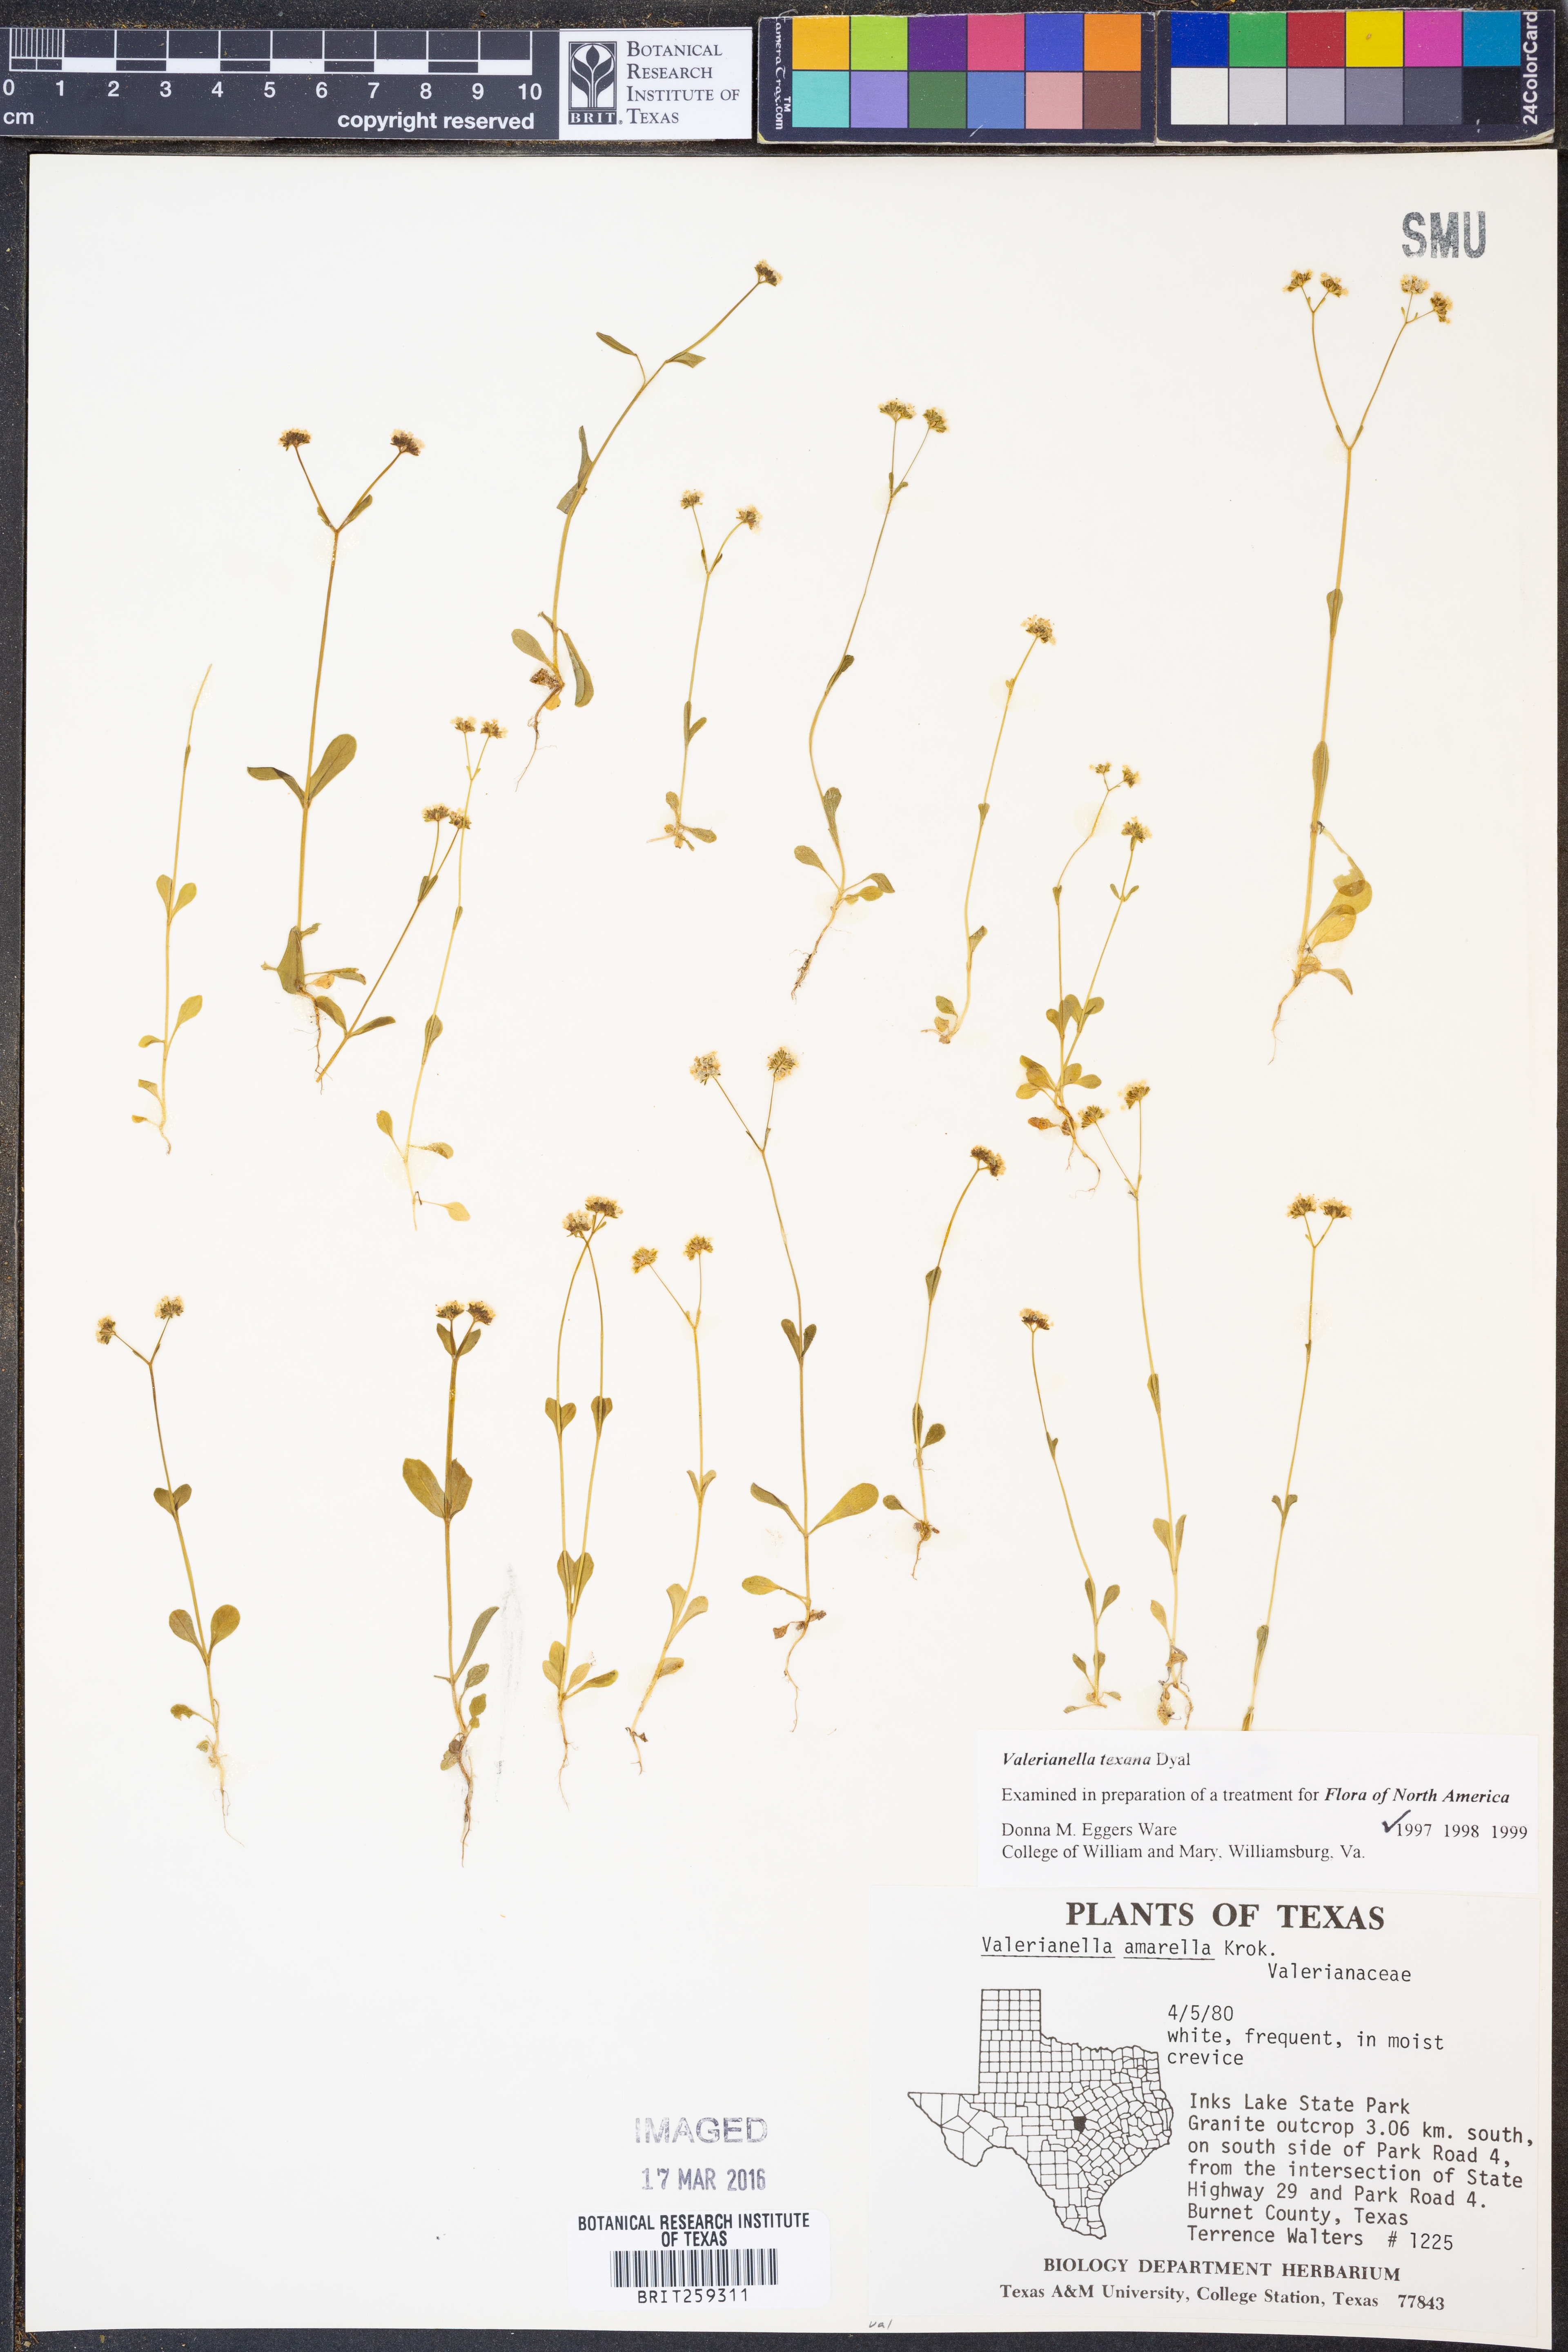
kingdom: Plantae
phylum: Tracheophyta
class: Magnoliopsida
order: Dipsacales
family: Caprifoliaceae
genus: Valerianella
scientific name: Valerianella texana
